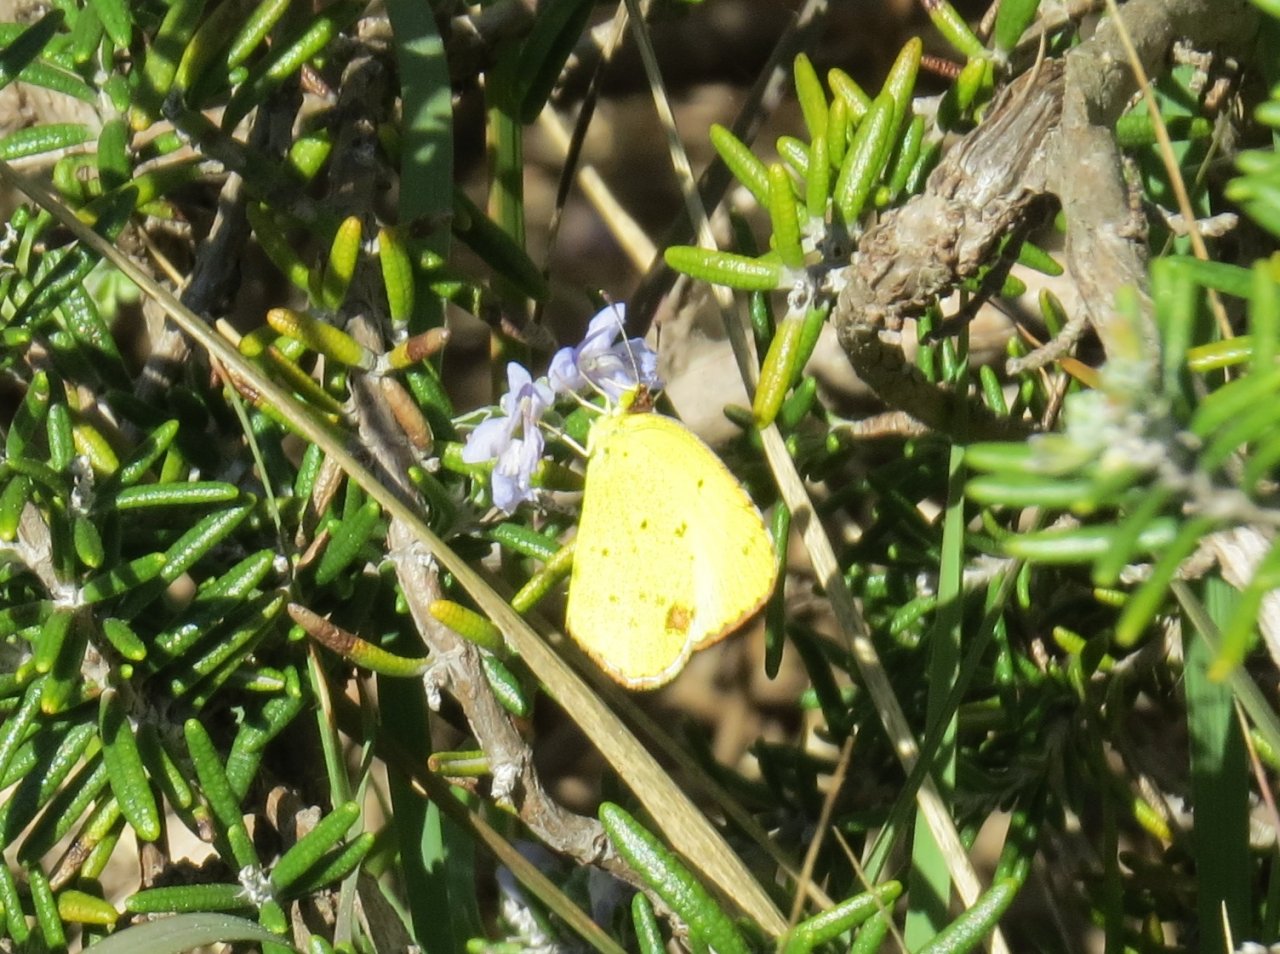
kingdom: Animalia
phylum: Arthropoda
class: Insecta
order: Lepidoptera
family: Pieridae
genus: Pyrisitia
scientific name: Pyrisitia lisa
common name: Little Yellow
